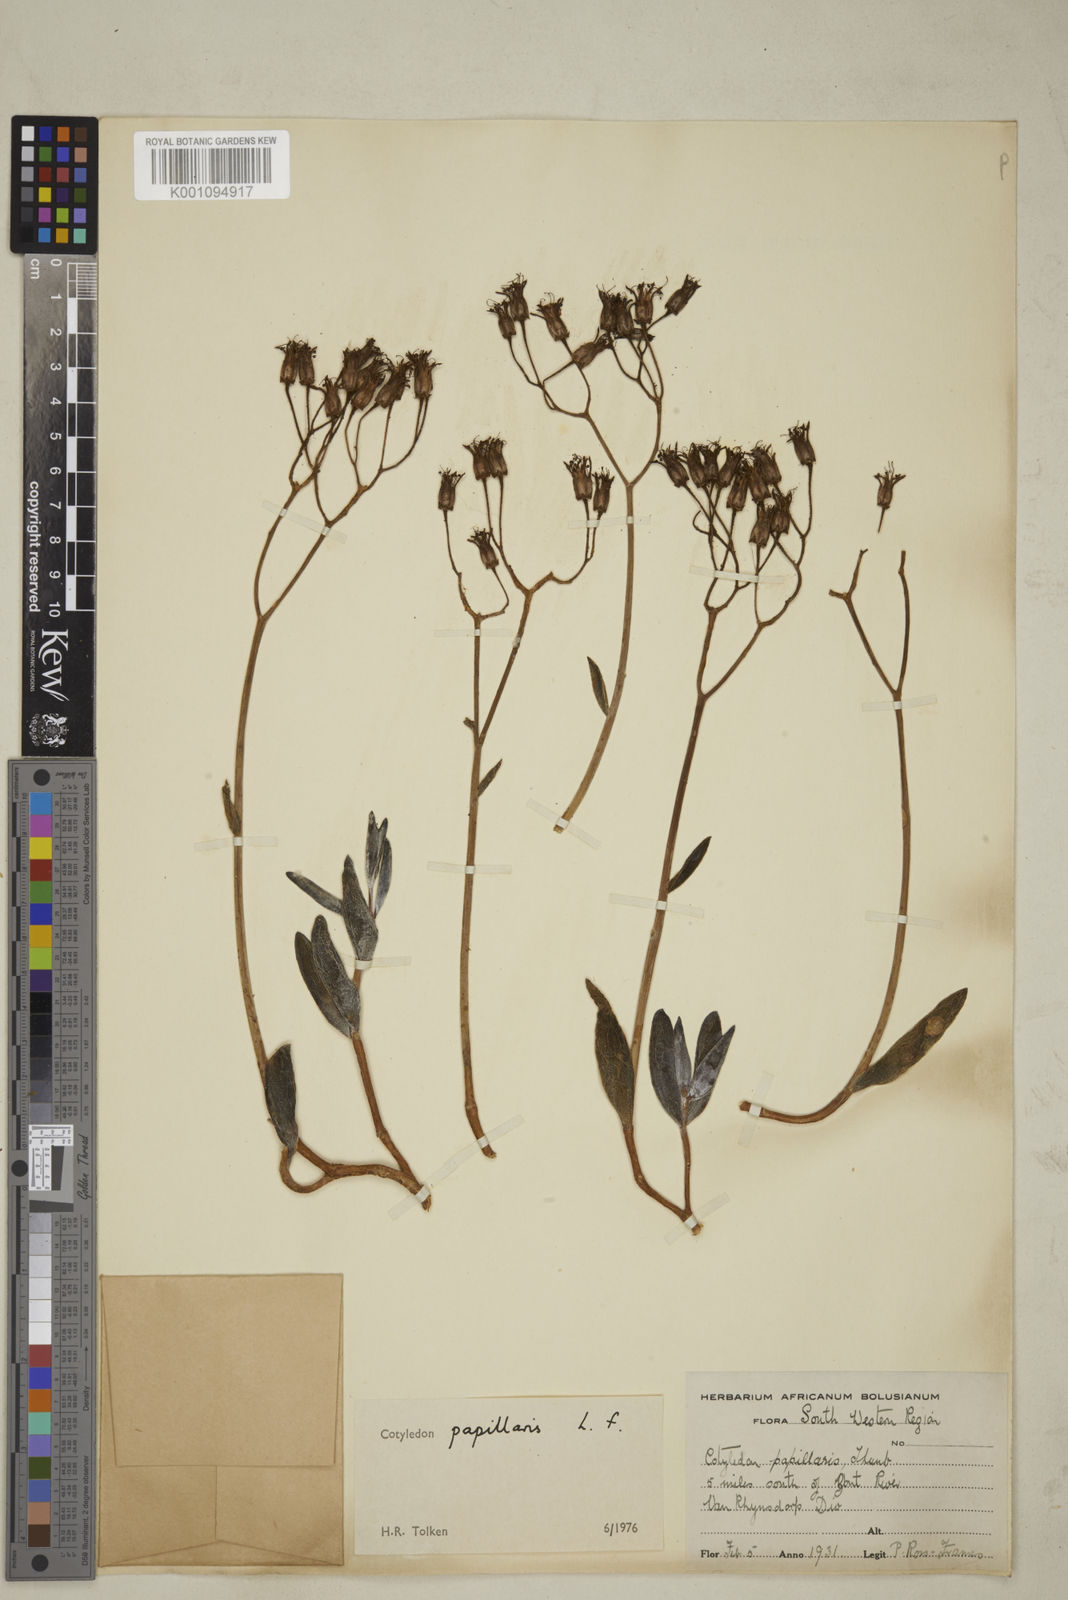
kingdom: Plantae
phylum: Tracheophyta
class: Magnoliopsida
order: Saxifragales
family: Crassulaceae
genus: Cotyledon
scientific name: Cotyledon campanulata
